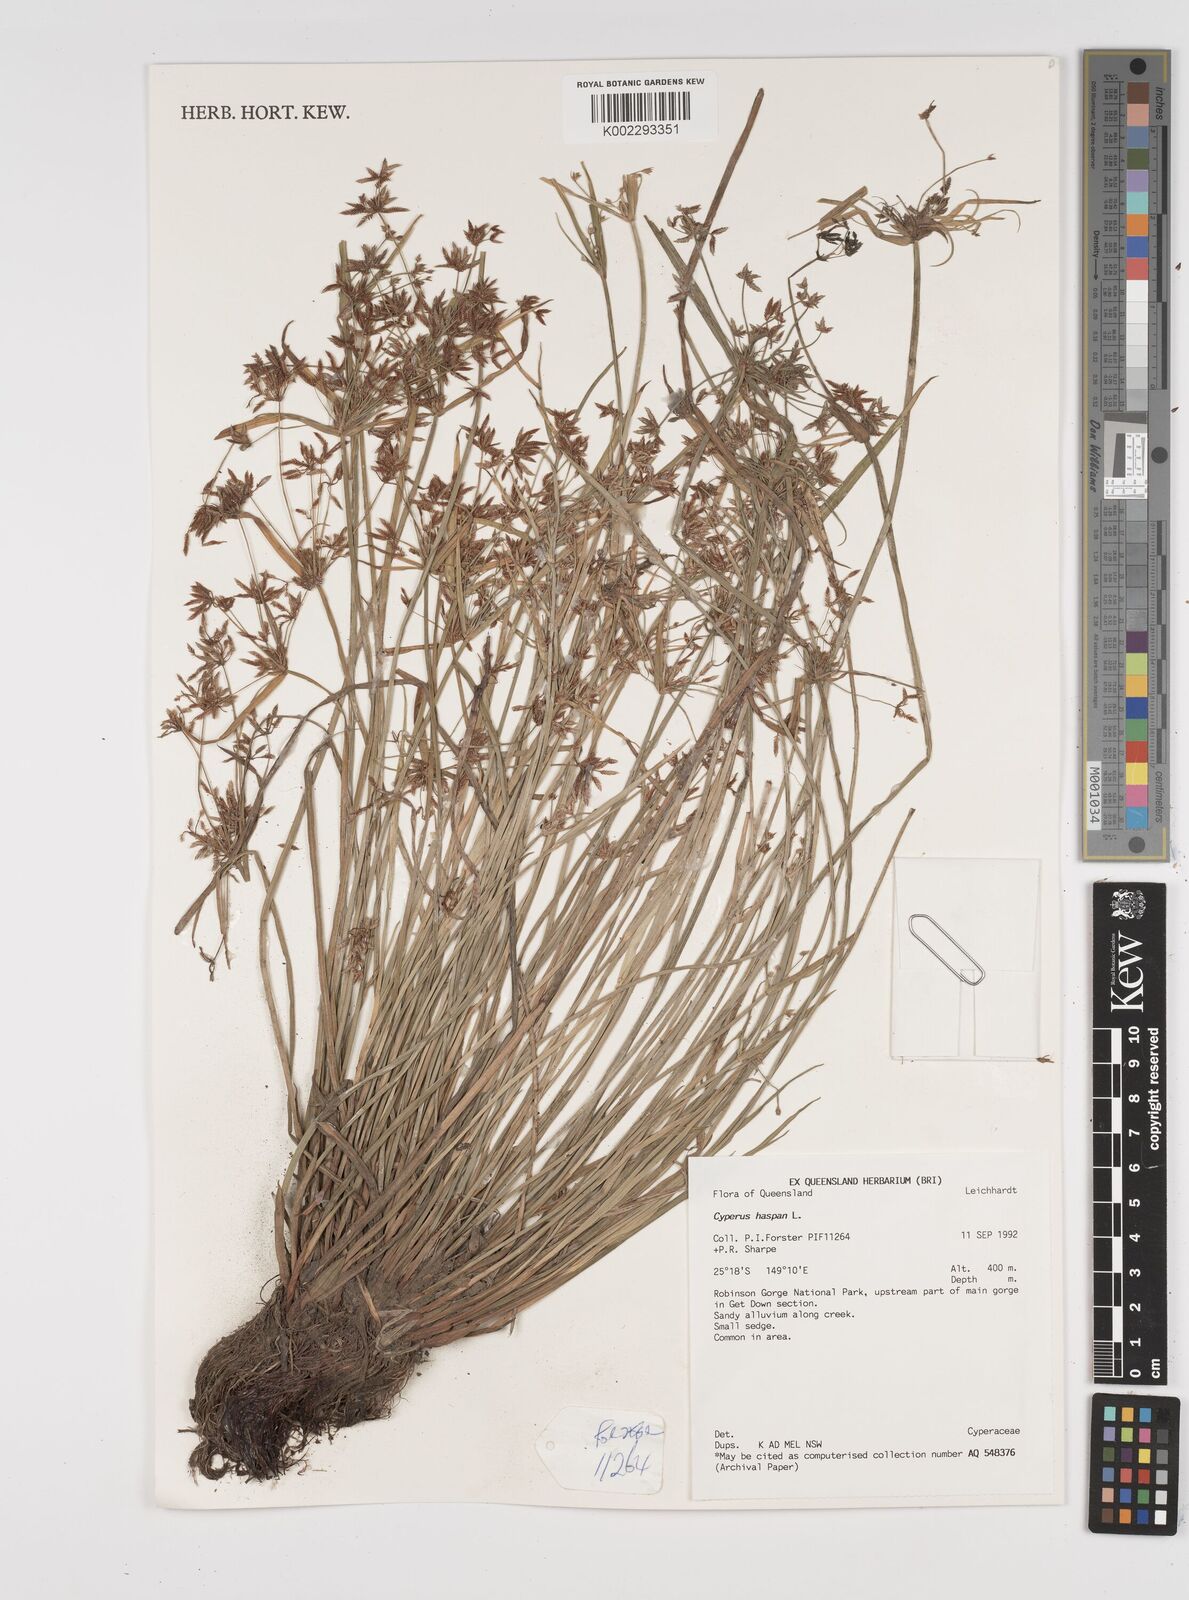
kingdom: Plantae
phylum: Tracheophyta
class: Liliopsida
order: Poales
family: Cyperaceae
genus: Cyperus
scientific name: Cyperus haspan
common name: Haspan flatsedge
